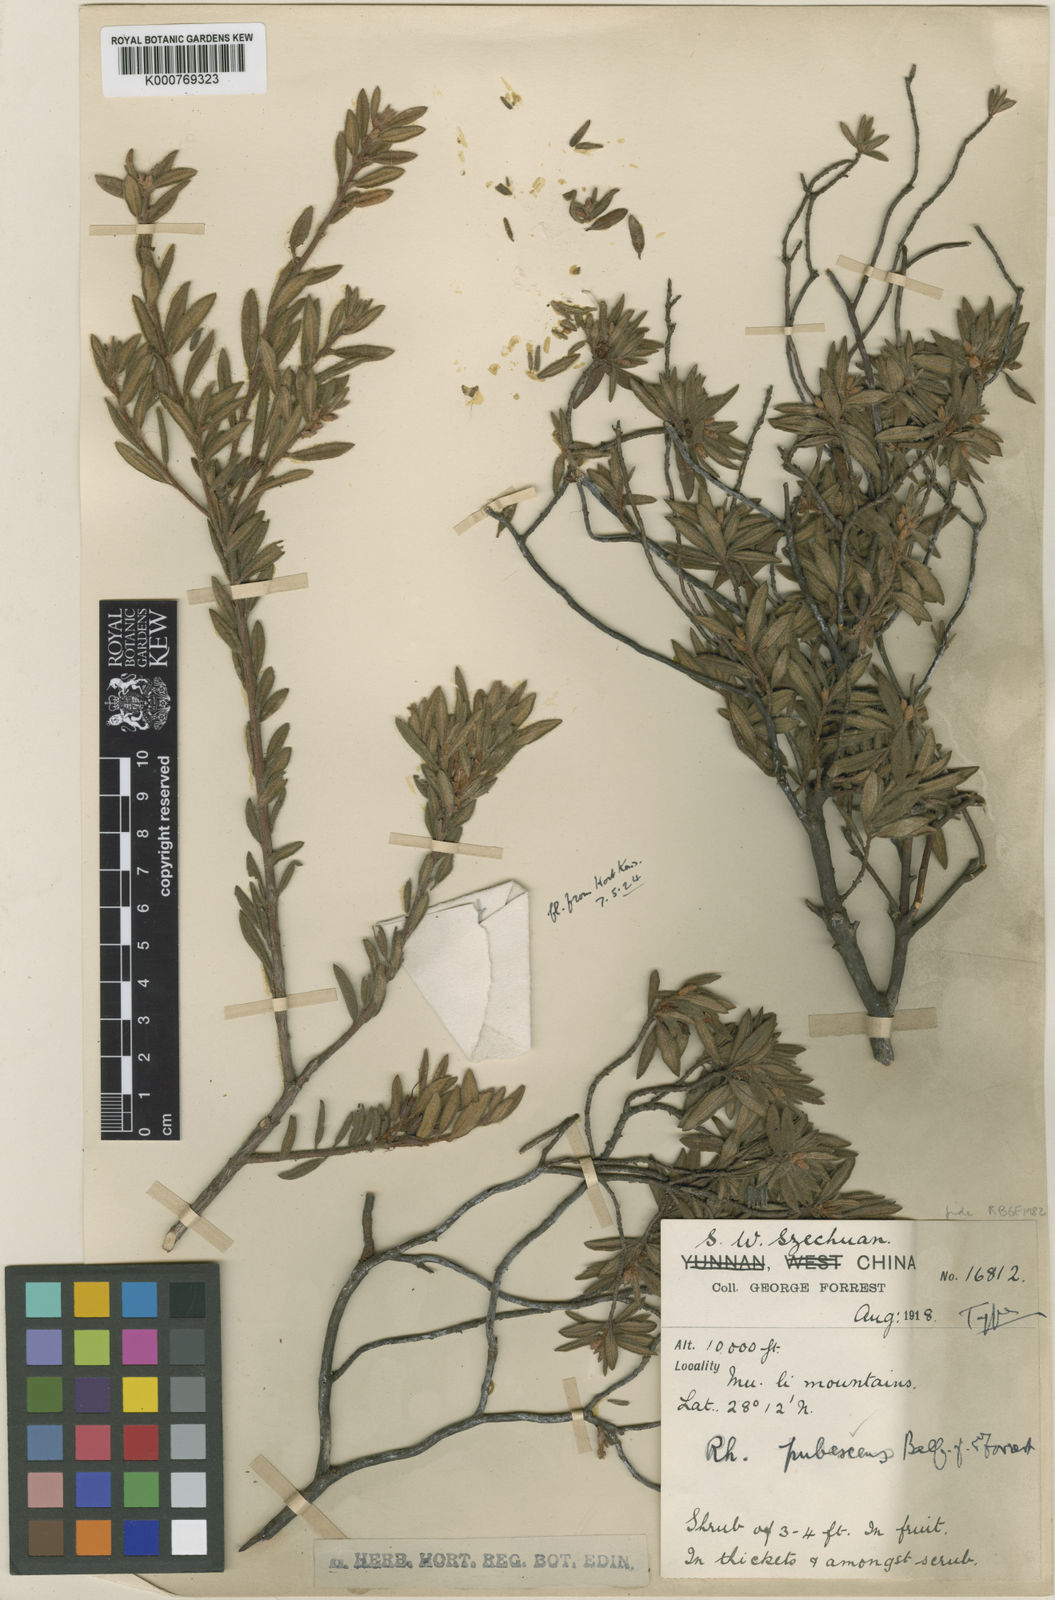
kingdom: Plantae
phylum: Tracheophyta
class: Magnoliopsida
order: Ericales
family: Ericaceae
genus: Rhododendron
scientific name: Rhododendron pubescens
